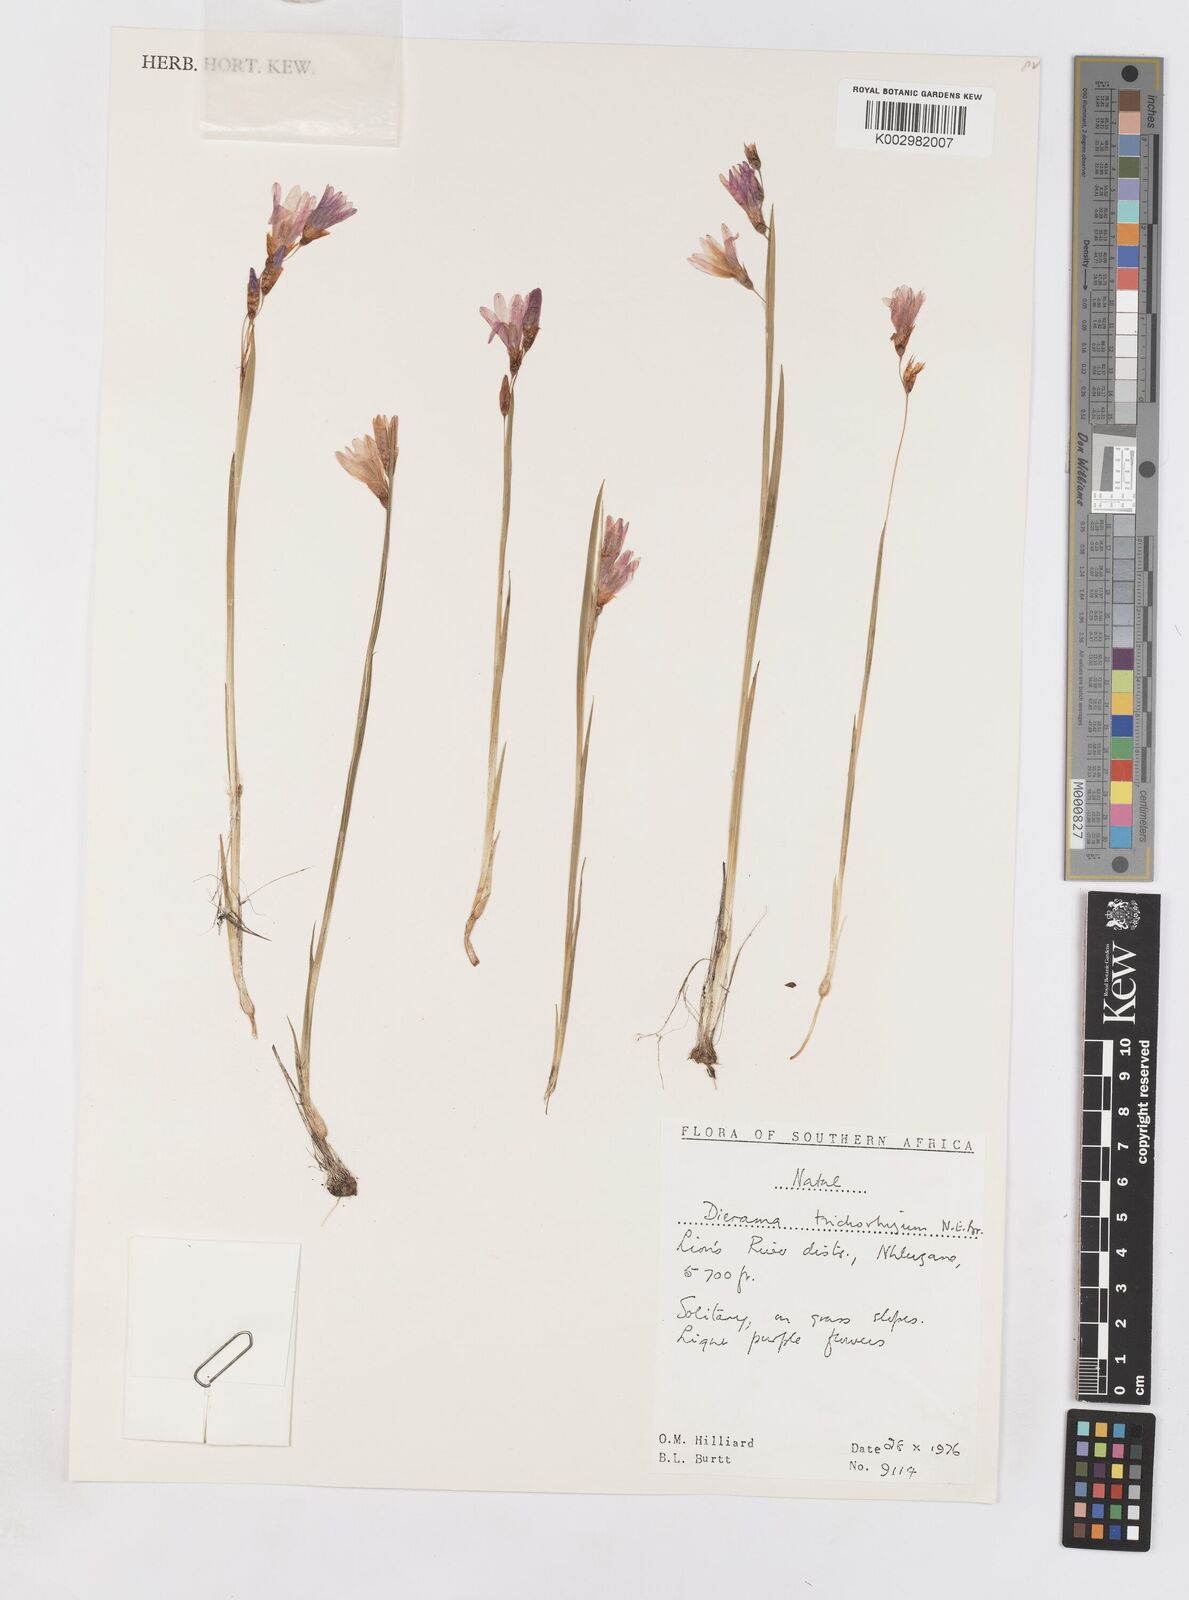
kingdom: Plantae
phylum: Tracheophyta
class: Liliopsida
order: Asparagales
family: Iridaceae
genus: Dierama
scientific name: Dierama trichorhizum
